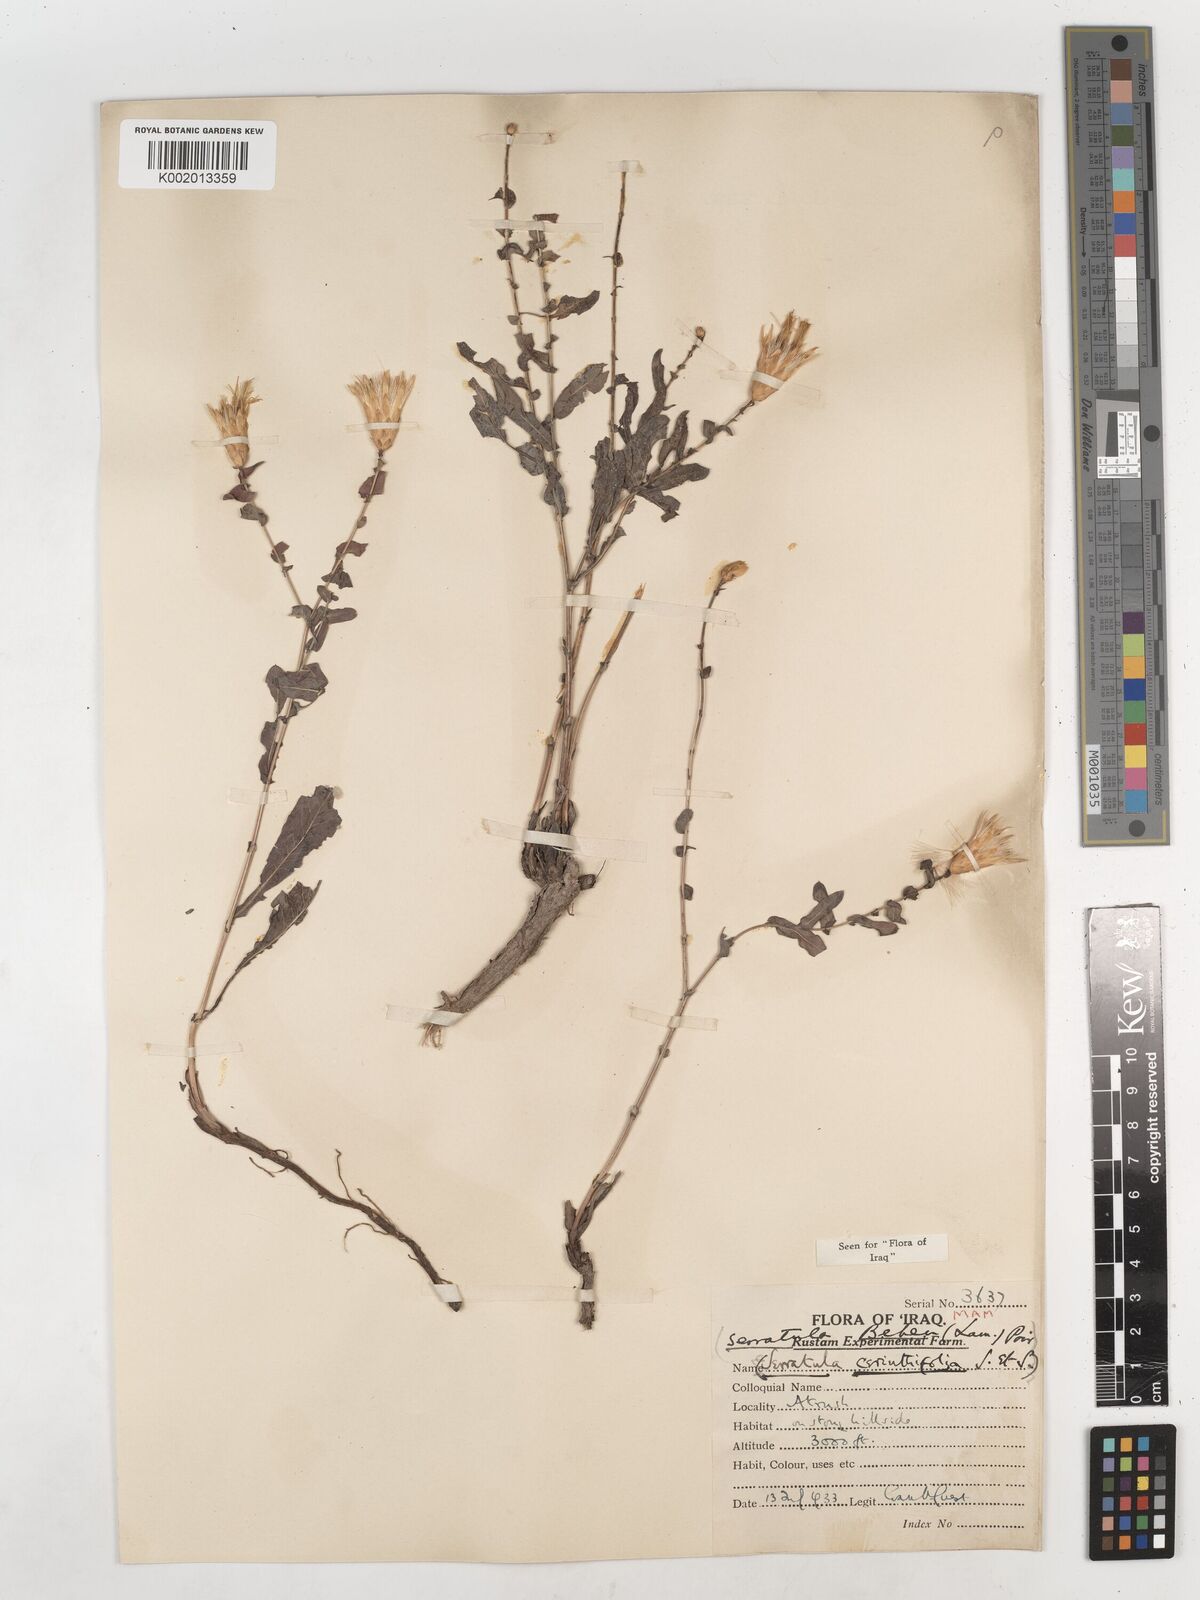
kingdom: Plantae
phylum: Tracheophyta
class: Magnoliopsida
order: Asterales
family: Asteraceae
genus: Klasea
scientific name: Klasea cerinthifolia
